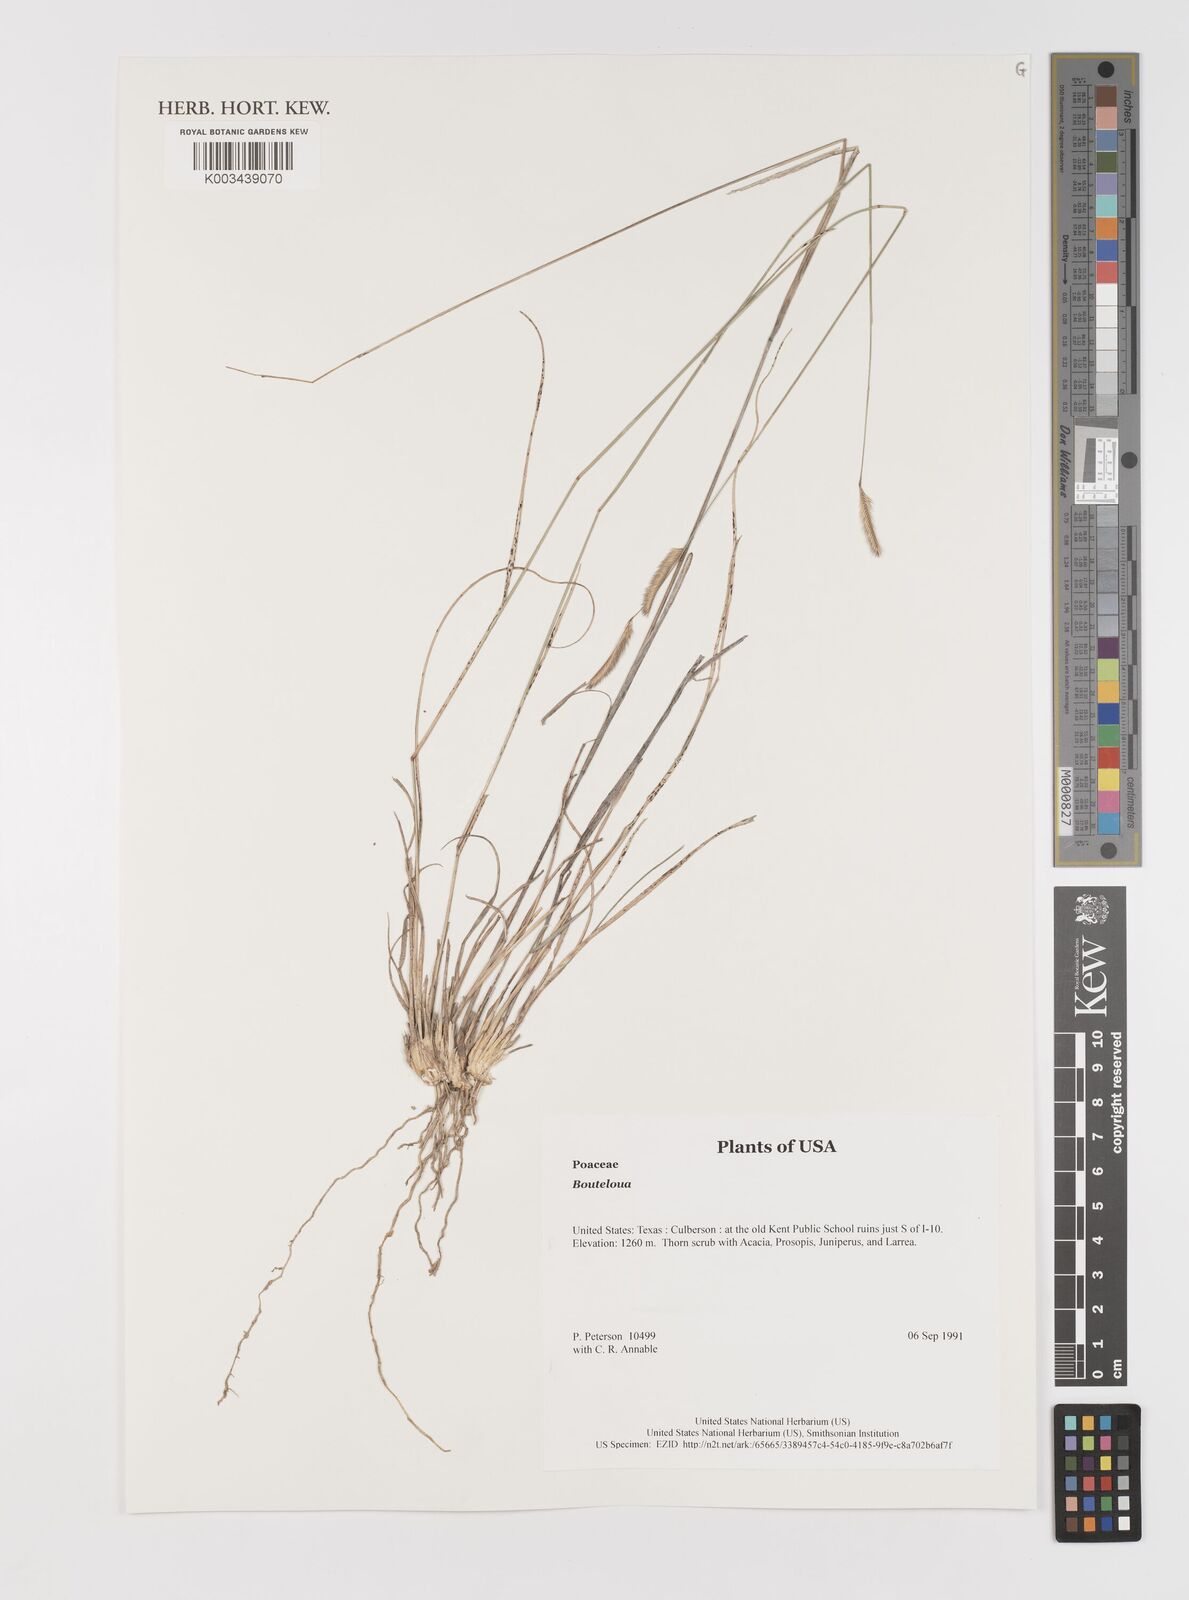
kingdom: Plantae
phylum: Tracheophyta
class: Liliopsida
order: Poales
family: Poaceae
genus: Bouteloua
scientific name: Bouteloua
